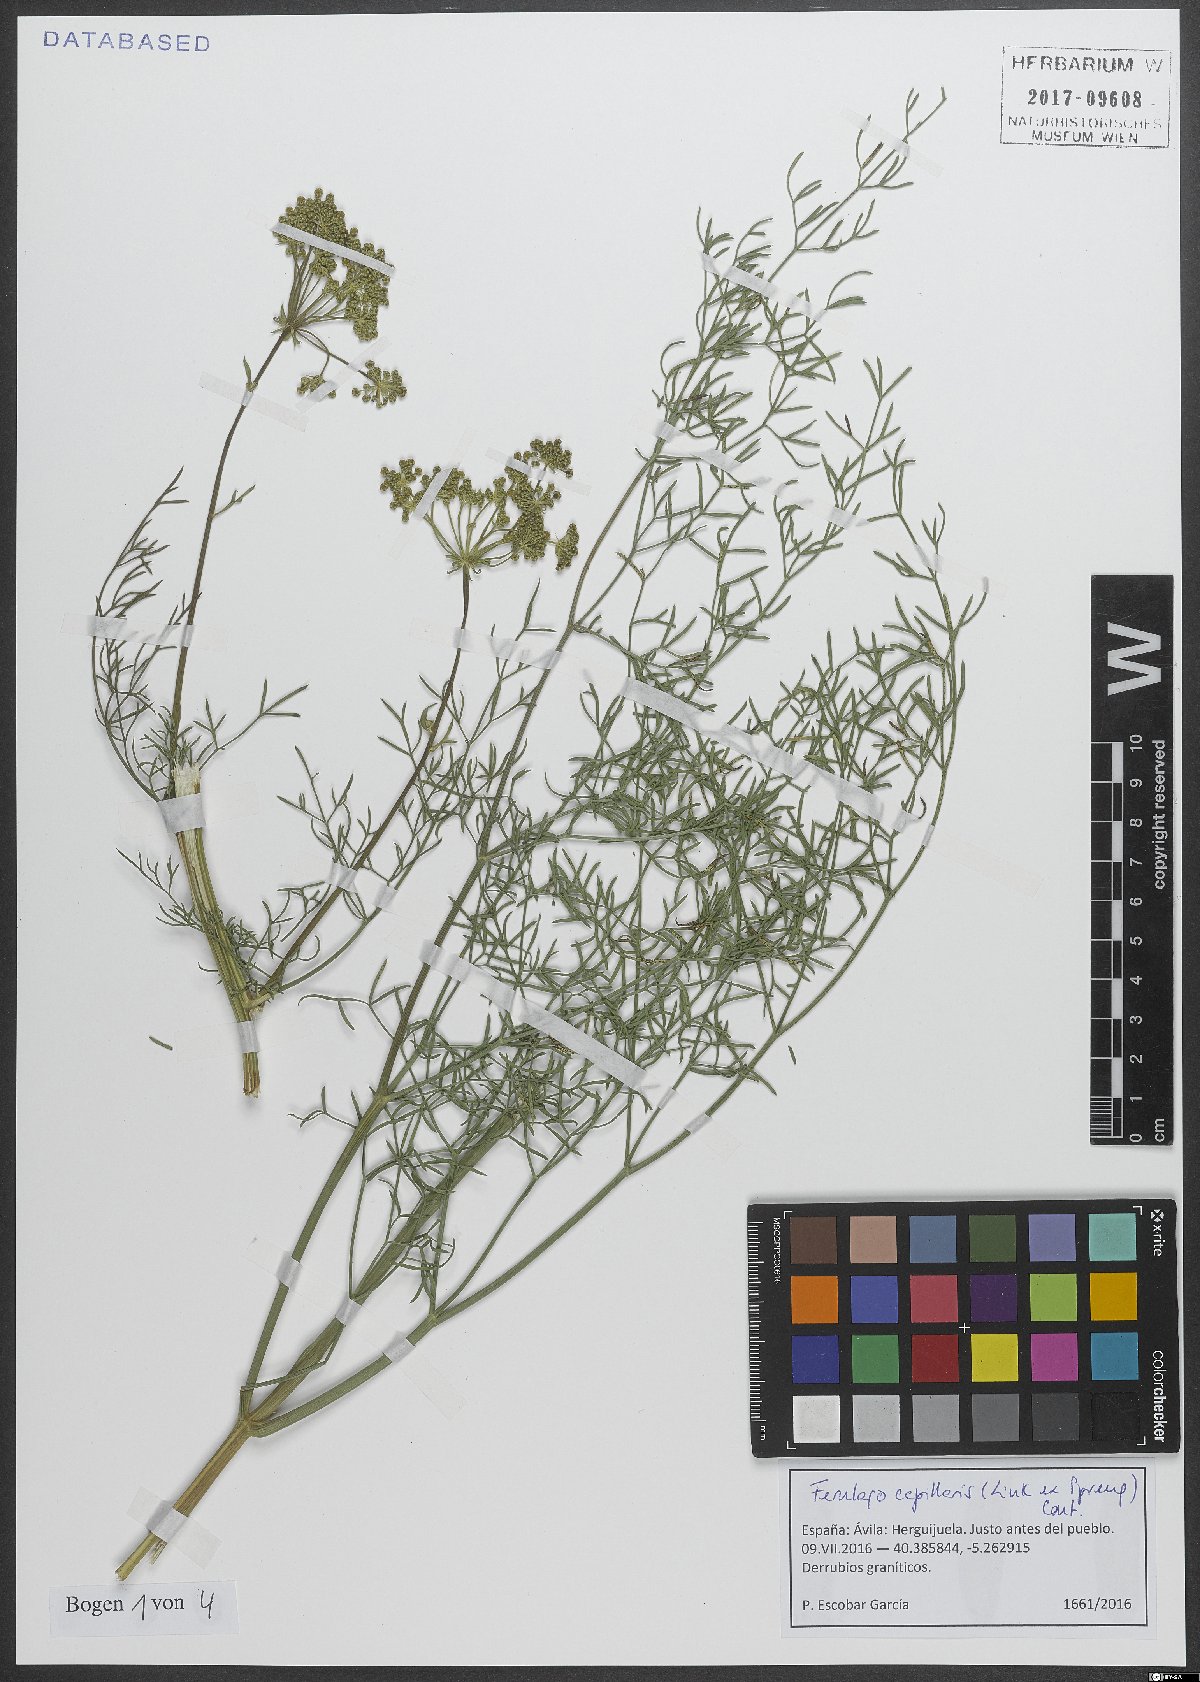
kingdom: Plantae
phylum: Tracheophyta
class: Magnoliopsida
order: Apiales
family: Apiaceae
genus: Ferulago
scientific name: Ferulago capillaris
